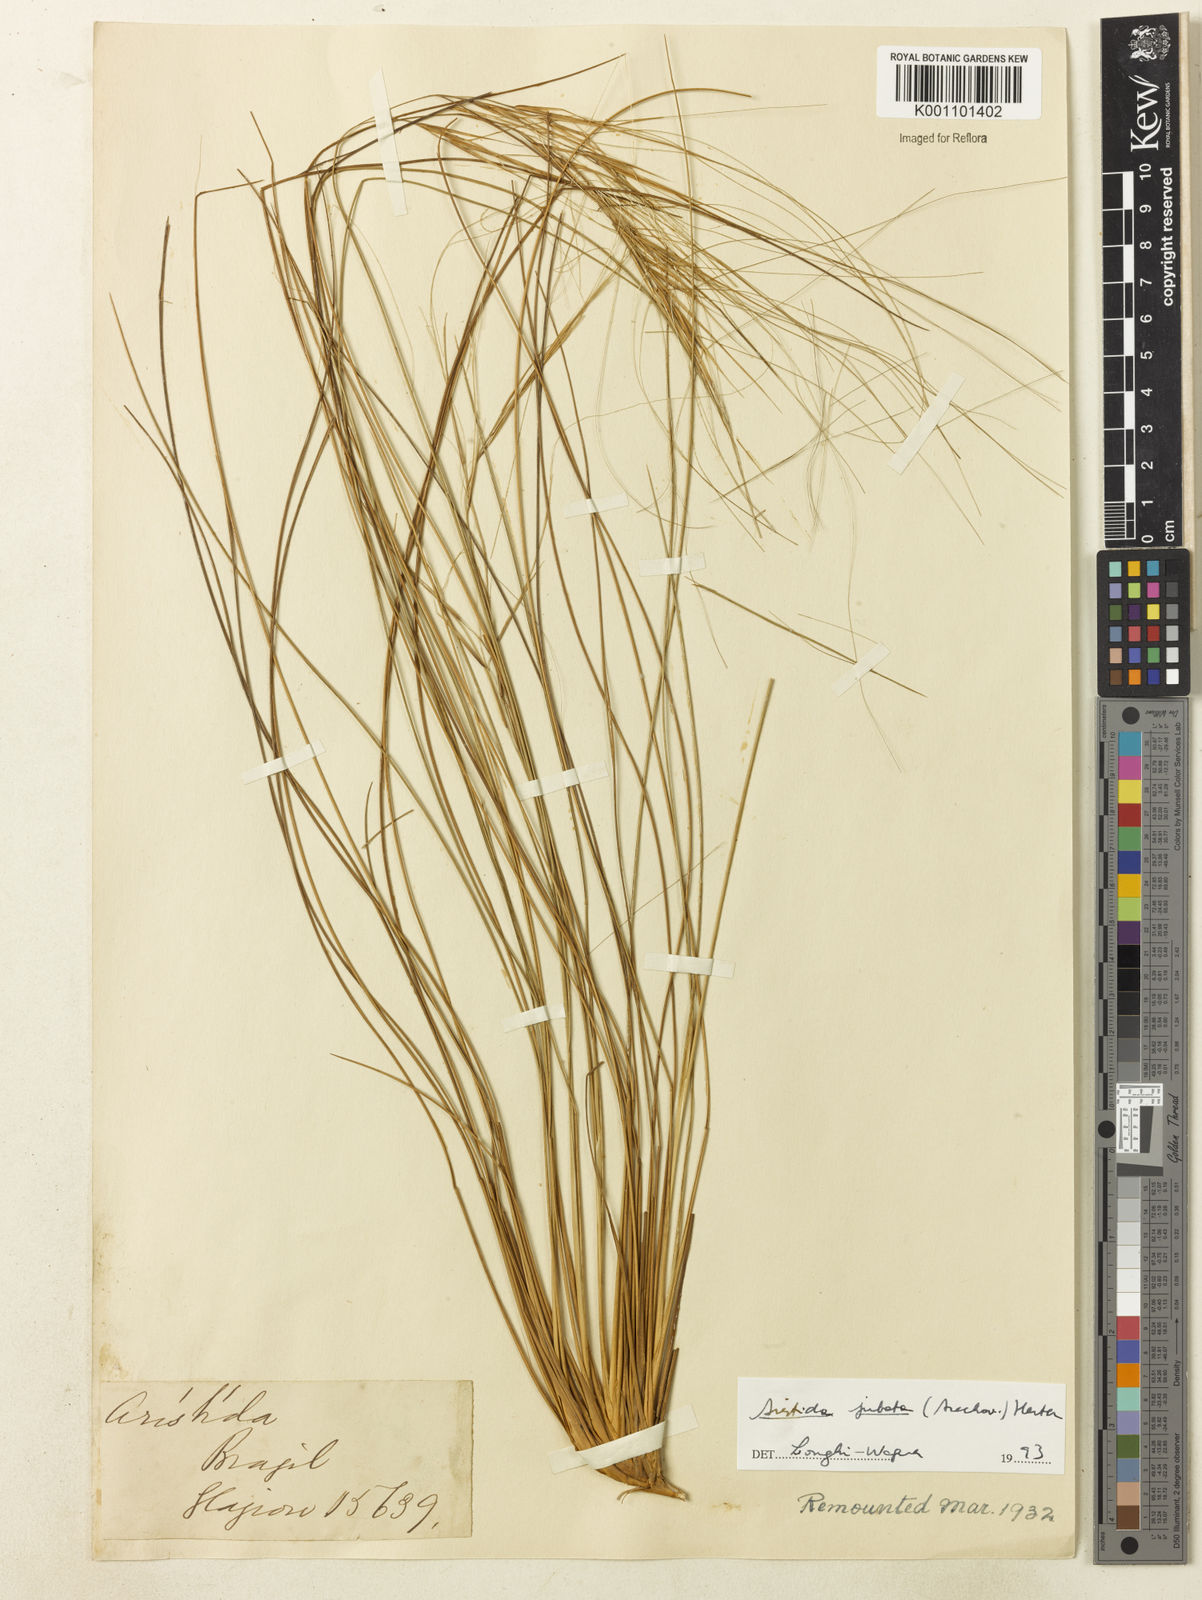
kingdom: Plantae
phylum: Tracheophyta
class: Liliopsida
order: Poales
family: Poaceae
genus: Aristida
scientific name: Aristida jubata
